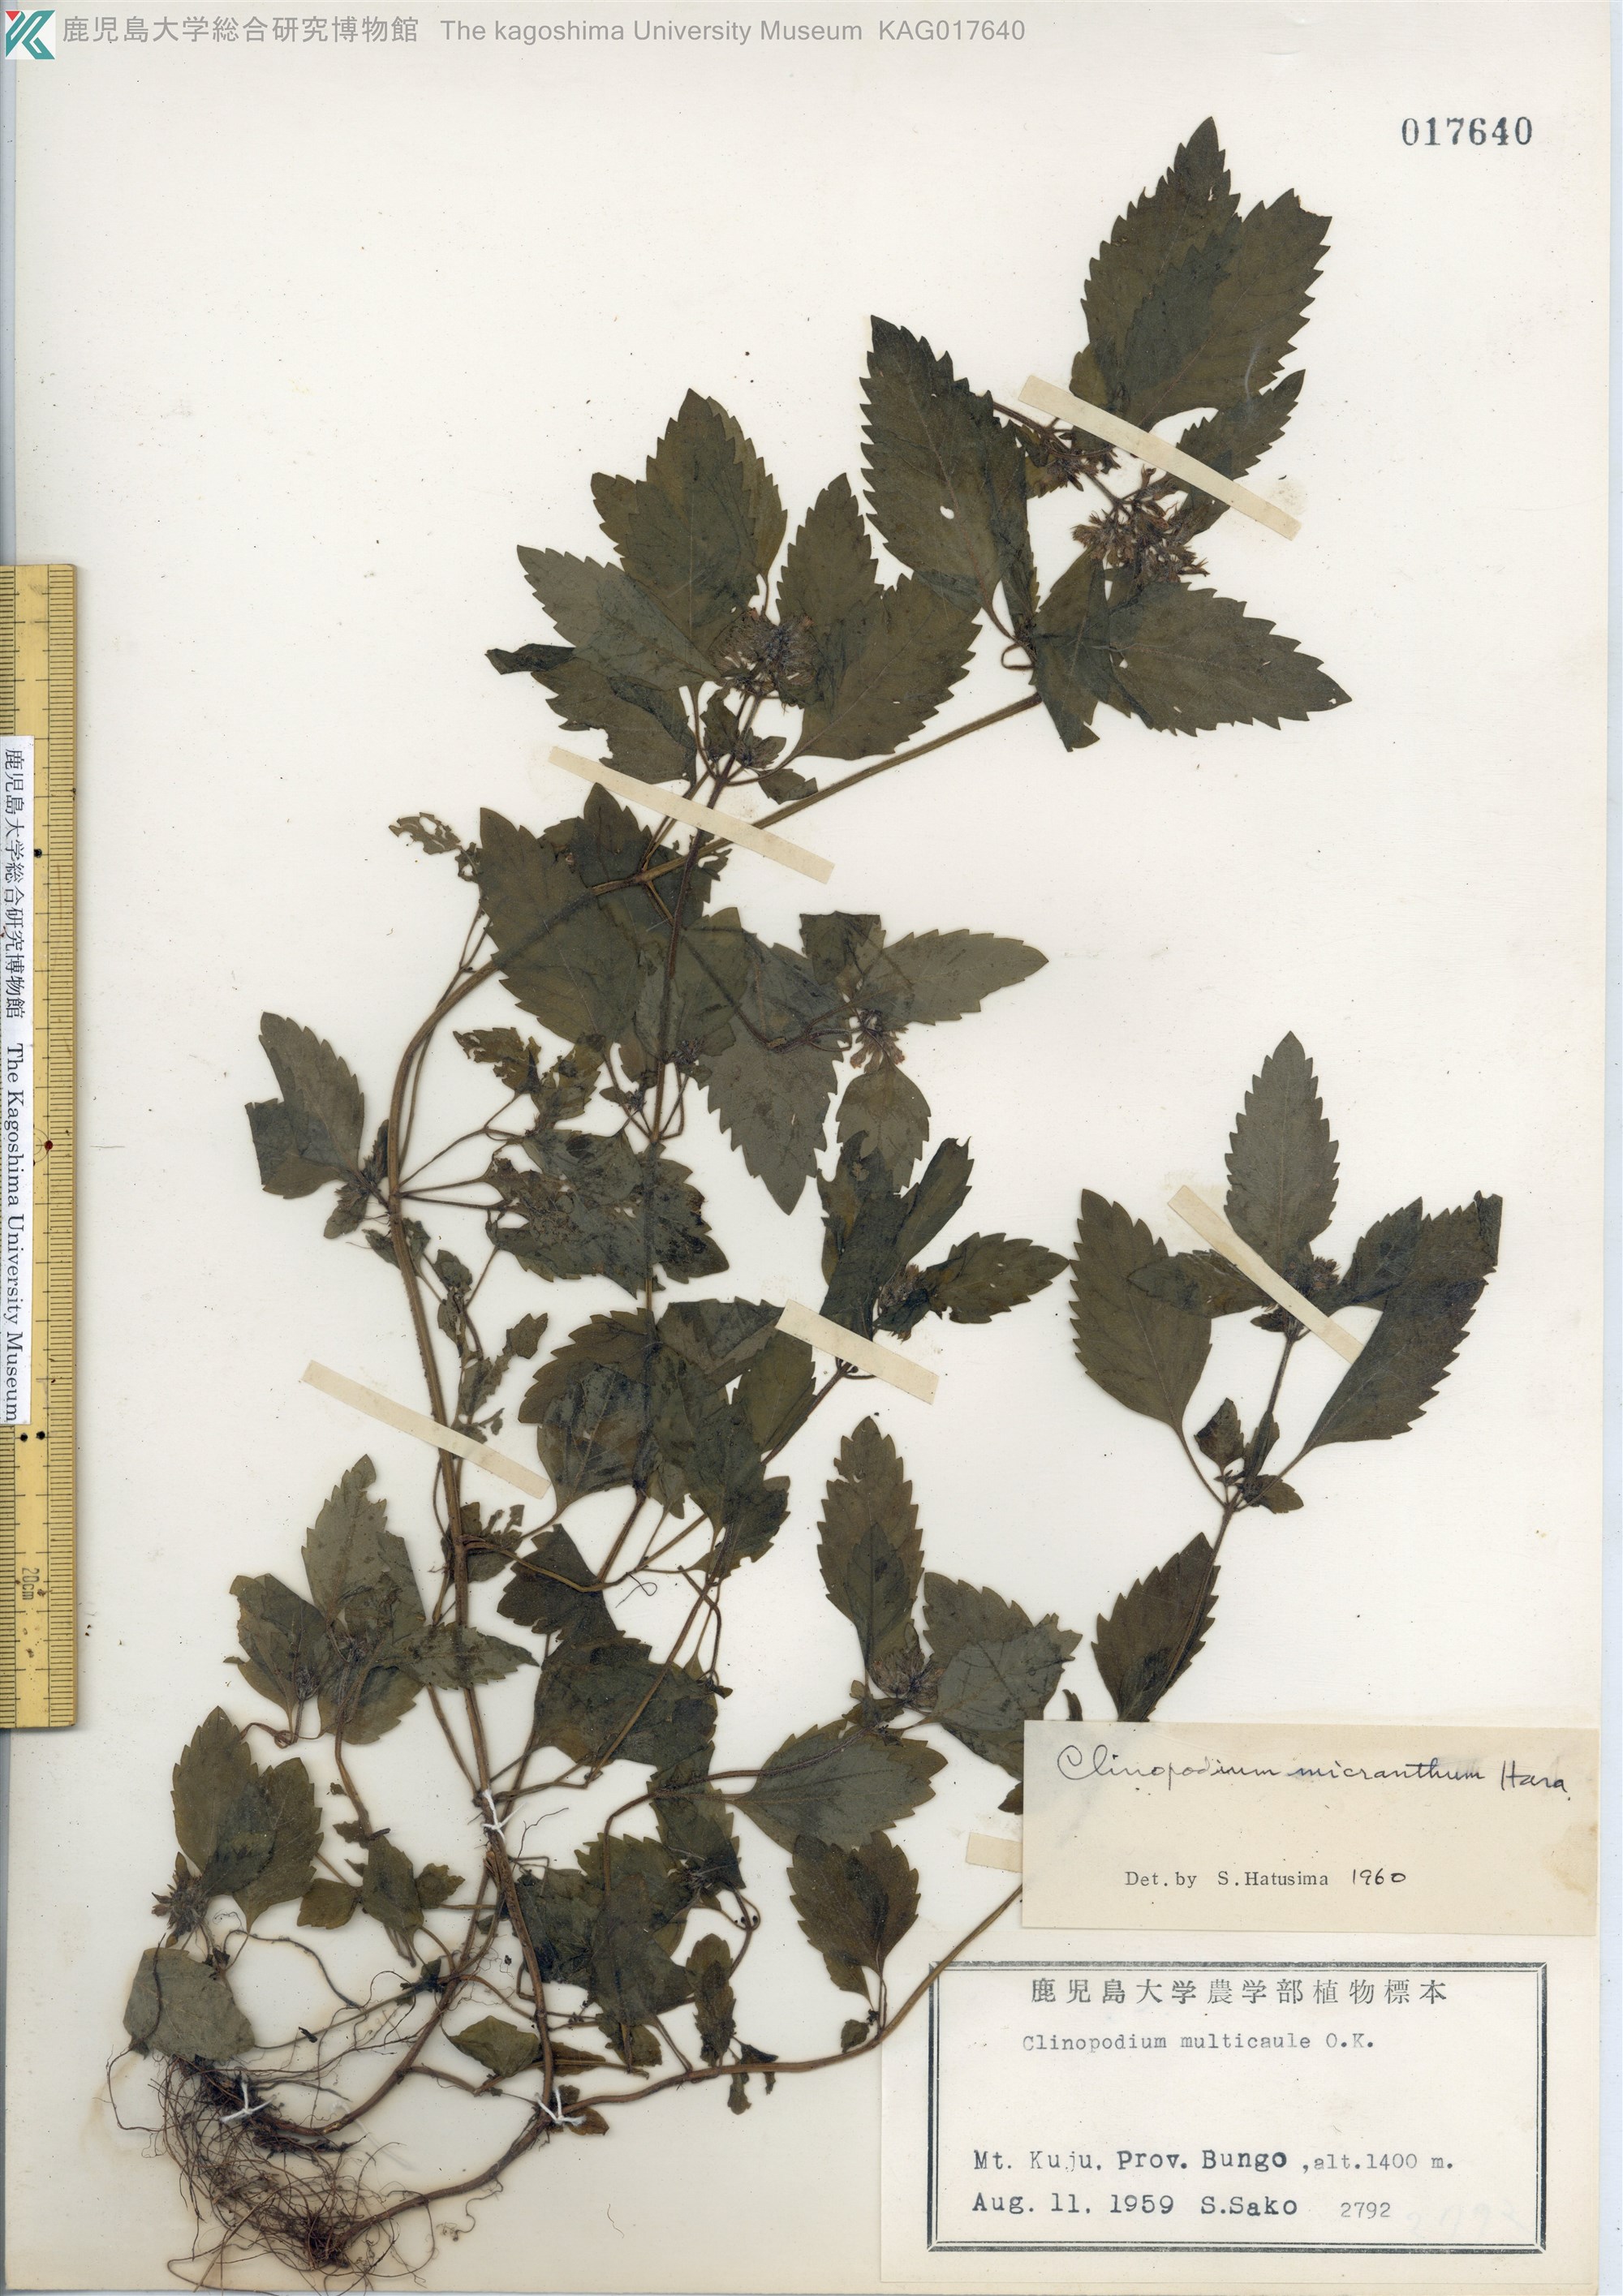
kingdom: Plantae
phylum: Tracheophyta
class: Magnoliopsida
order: Lamiales
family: Lamiaceae
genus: Clinopodium
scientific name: Clinopodium micranthum
